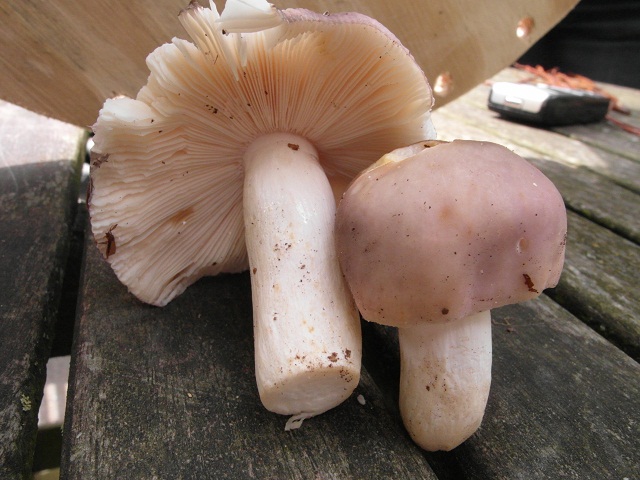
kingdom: Fungi
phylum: Basidiomycota
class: Agaricomycetes
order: Russulales
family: Russulaceae
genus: Russula
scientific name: Russula ionochlora
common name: violetgrøn skørhat
